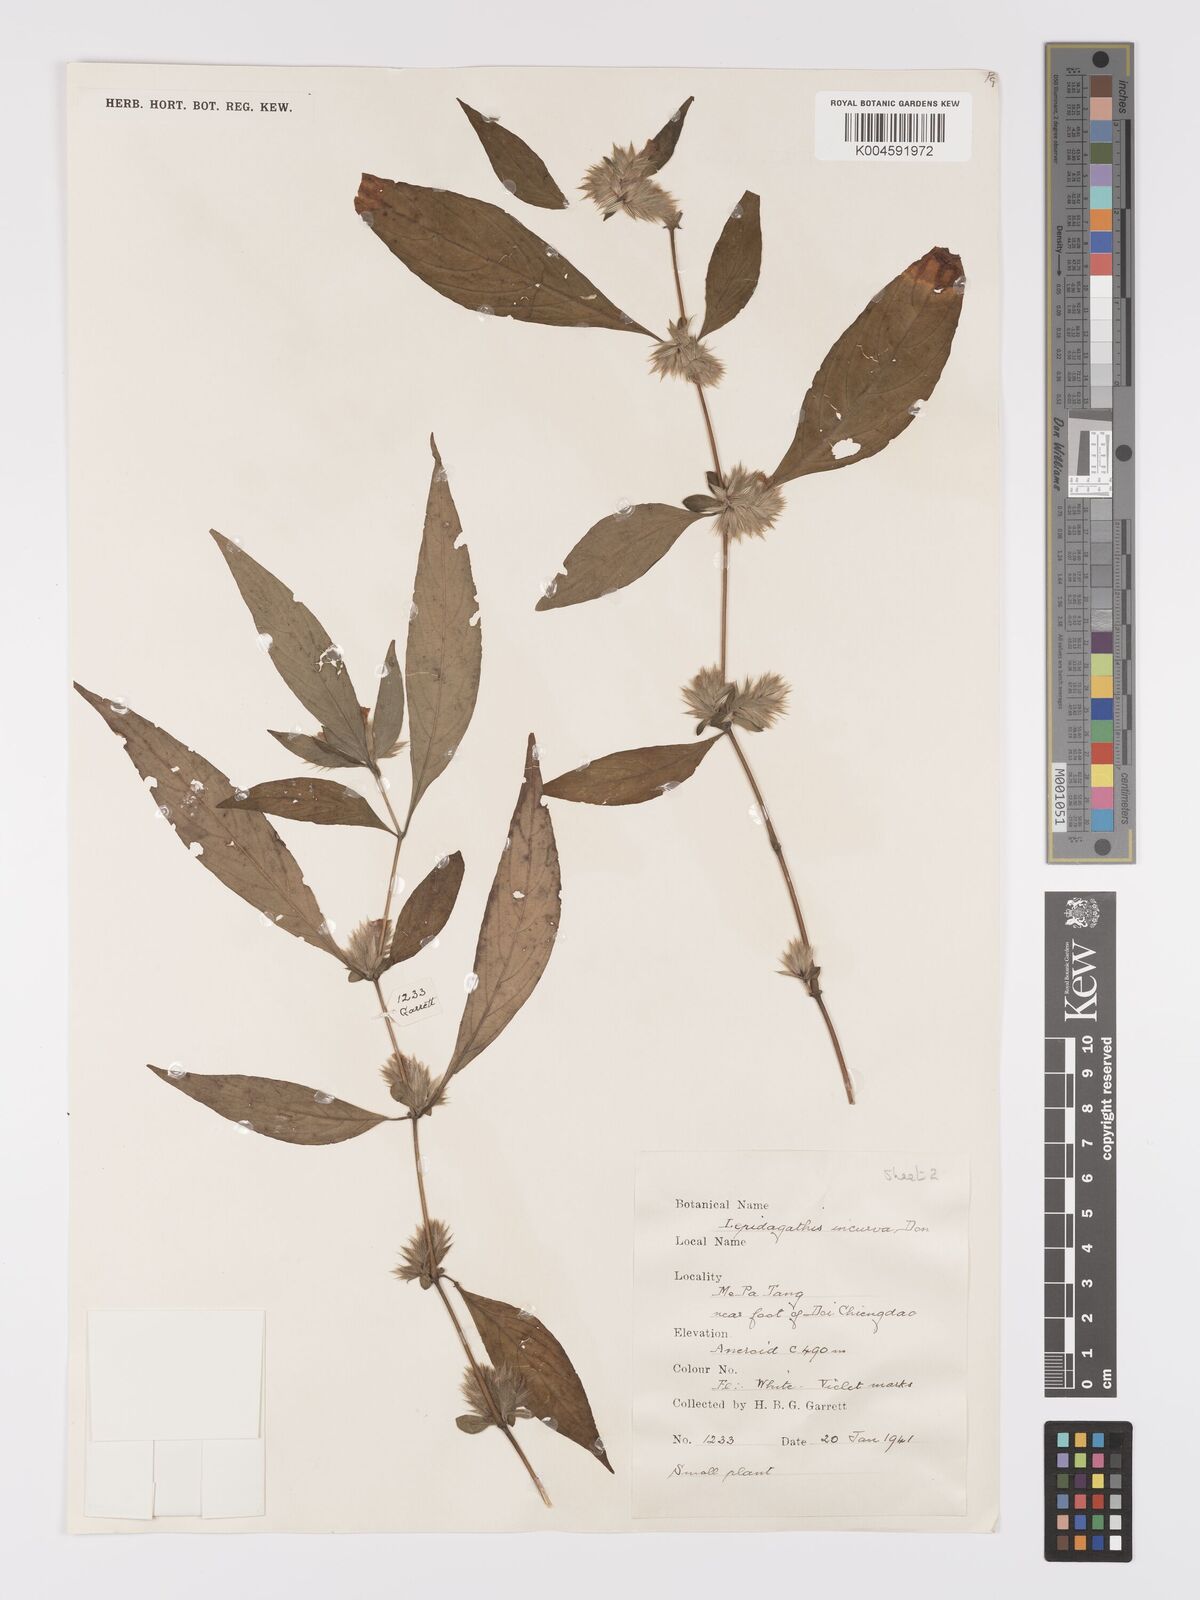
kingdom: Plantae
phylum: Tracheophyta
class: Magnoliopsida
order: Lamiales
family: Acanthaceae
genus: Lepidagathis
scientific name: Lepidagathis incurva
